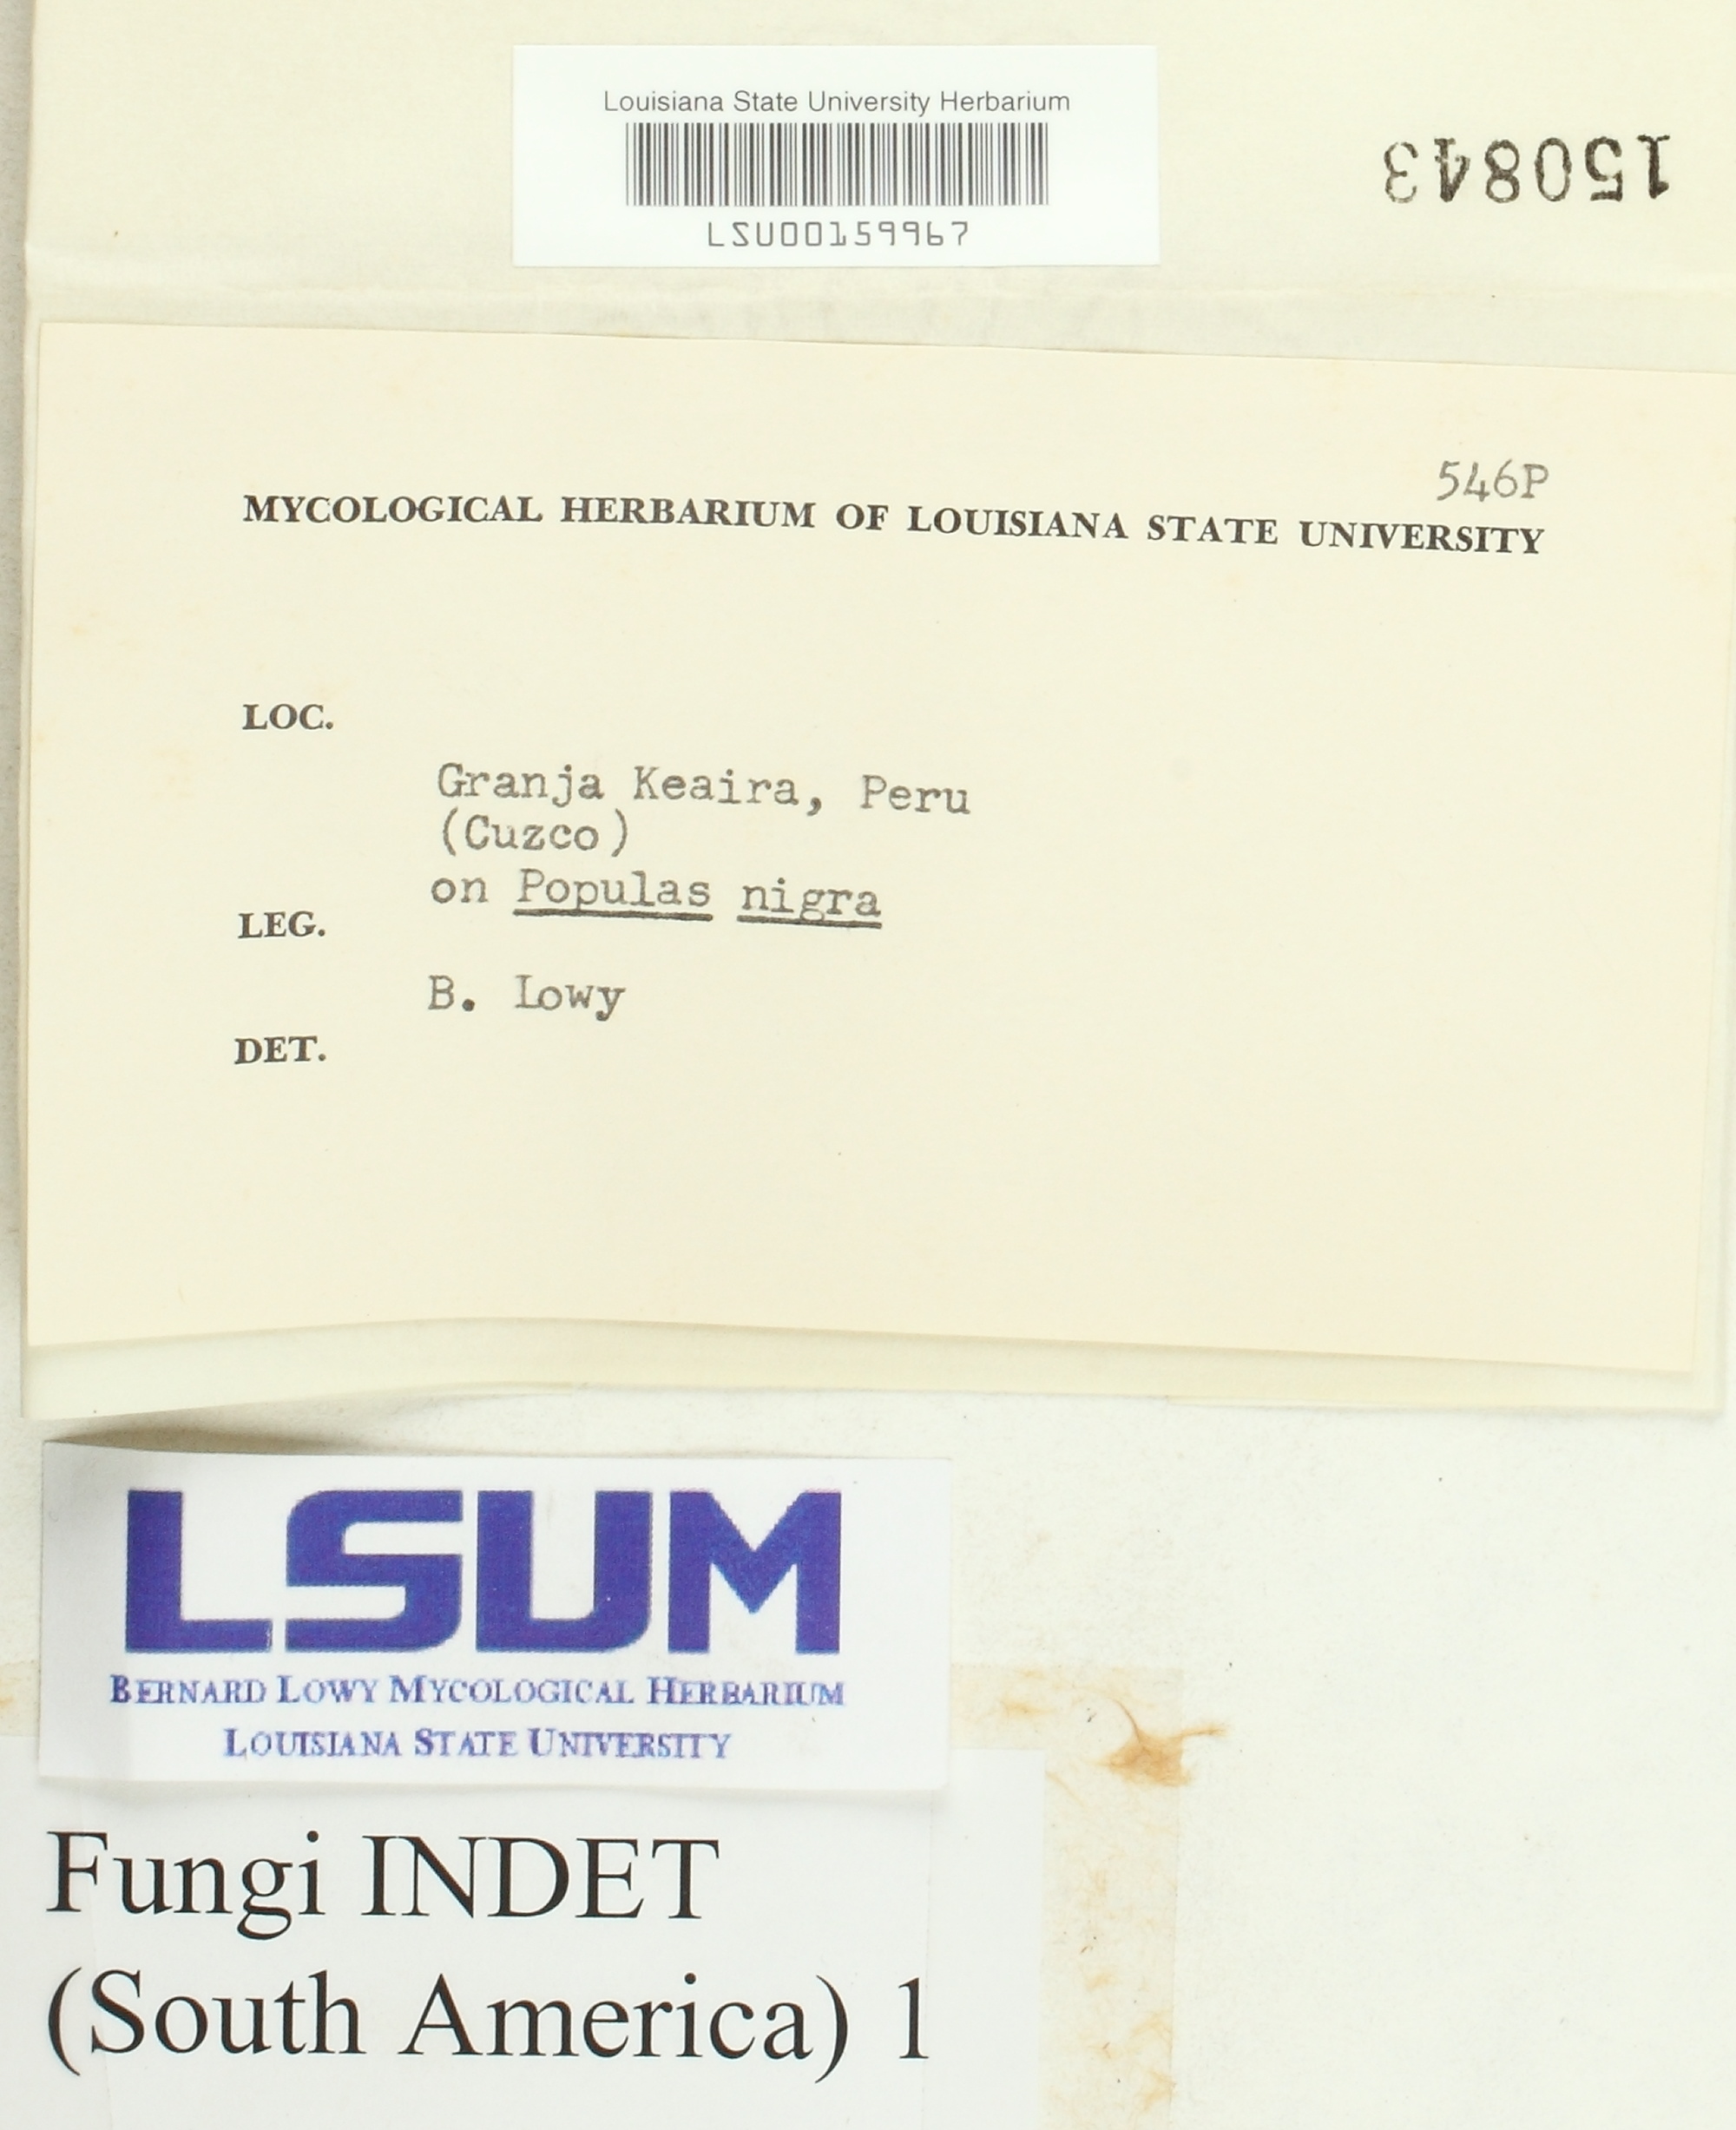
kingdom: Fungi
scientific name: Fungi
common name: Fungi
